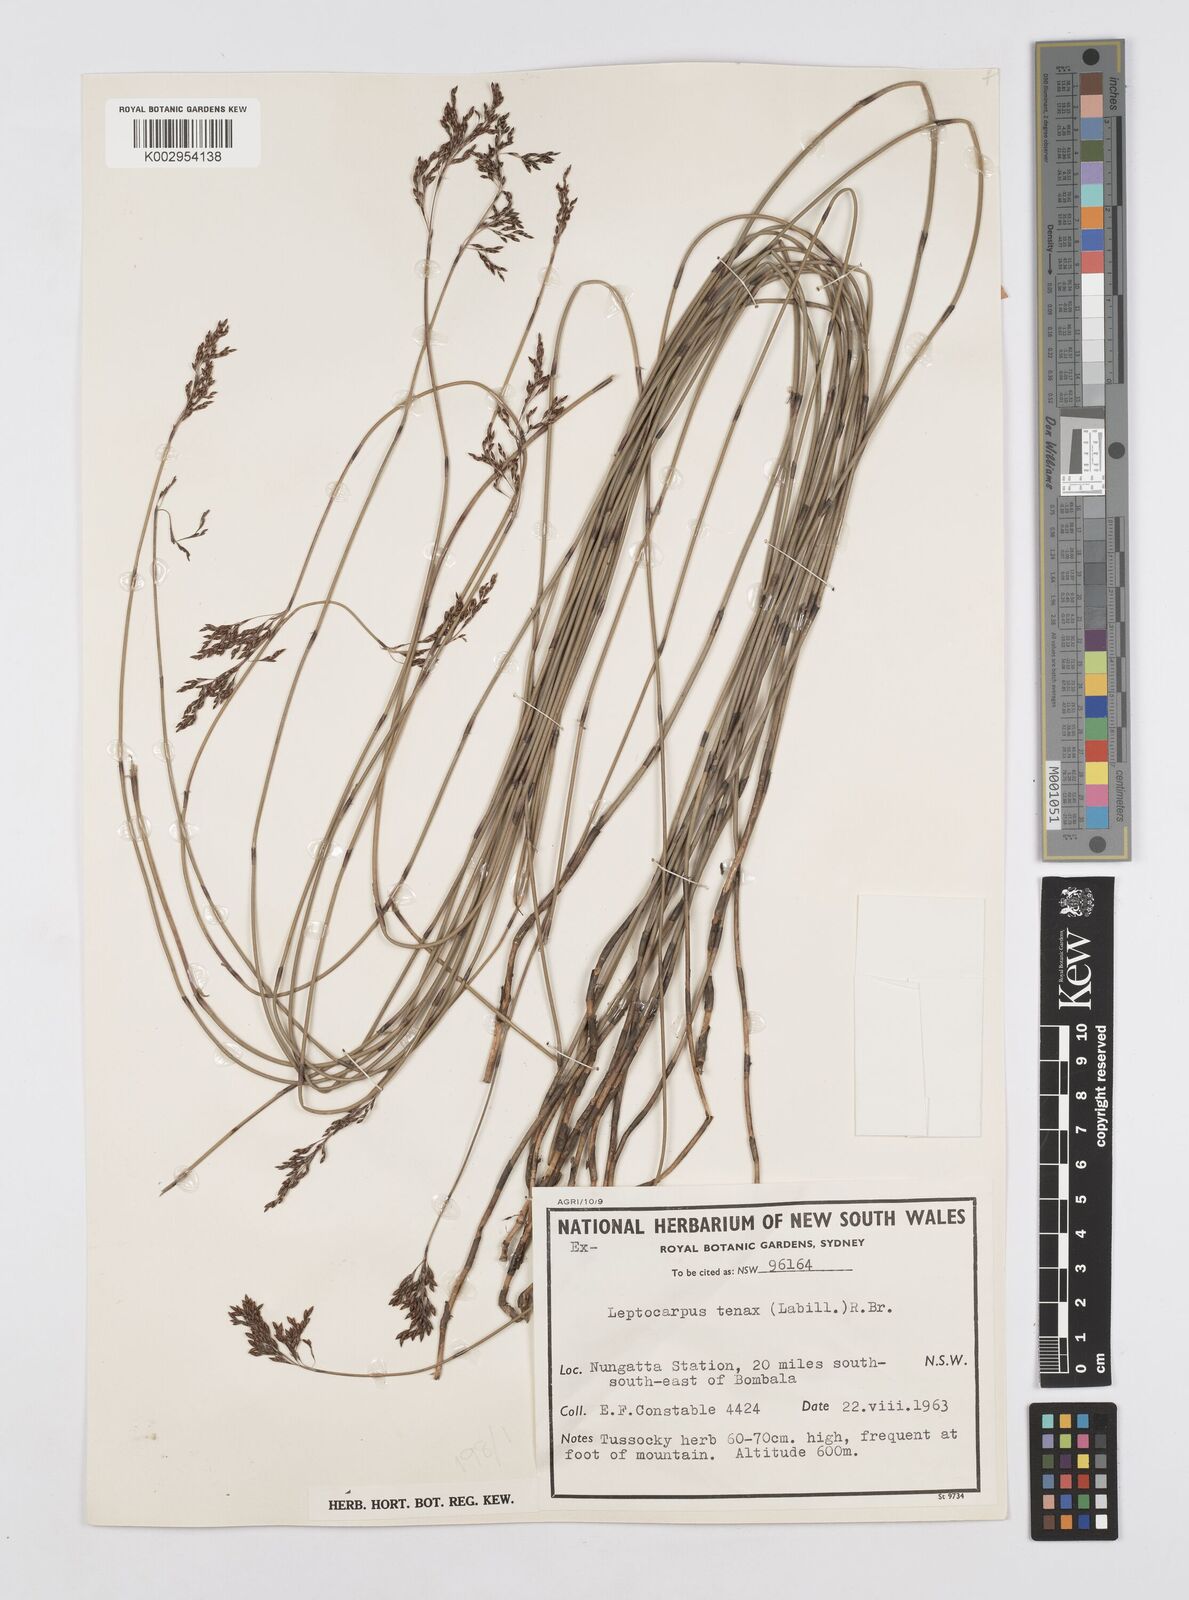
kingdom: Plantae
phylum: Tracheophyta
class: Liliopsida
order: Poales
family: Restionaceae
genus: Leptocarpus
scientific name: Leptocarpus tenax
